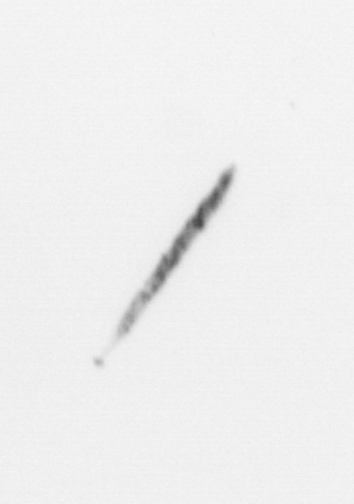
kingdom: Chromista
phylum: Ochrophyta
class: Bacillariophyceae
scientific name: Bacillariophyceae
